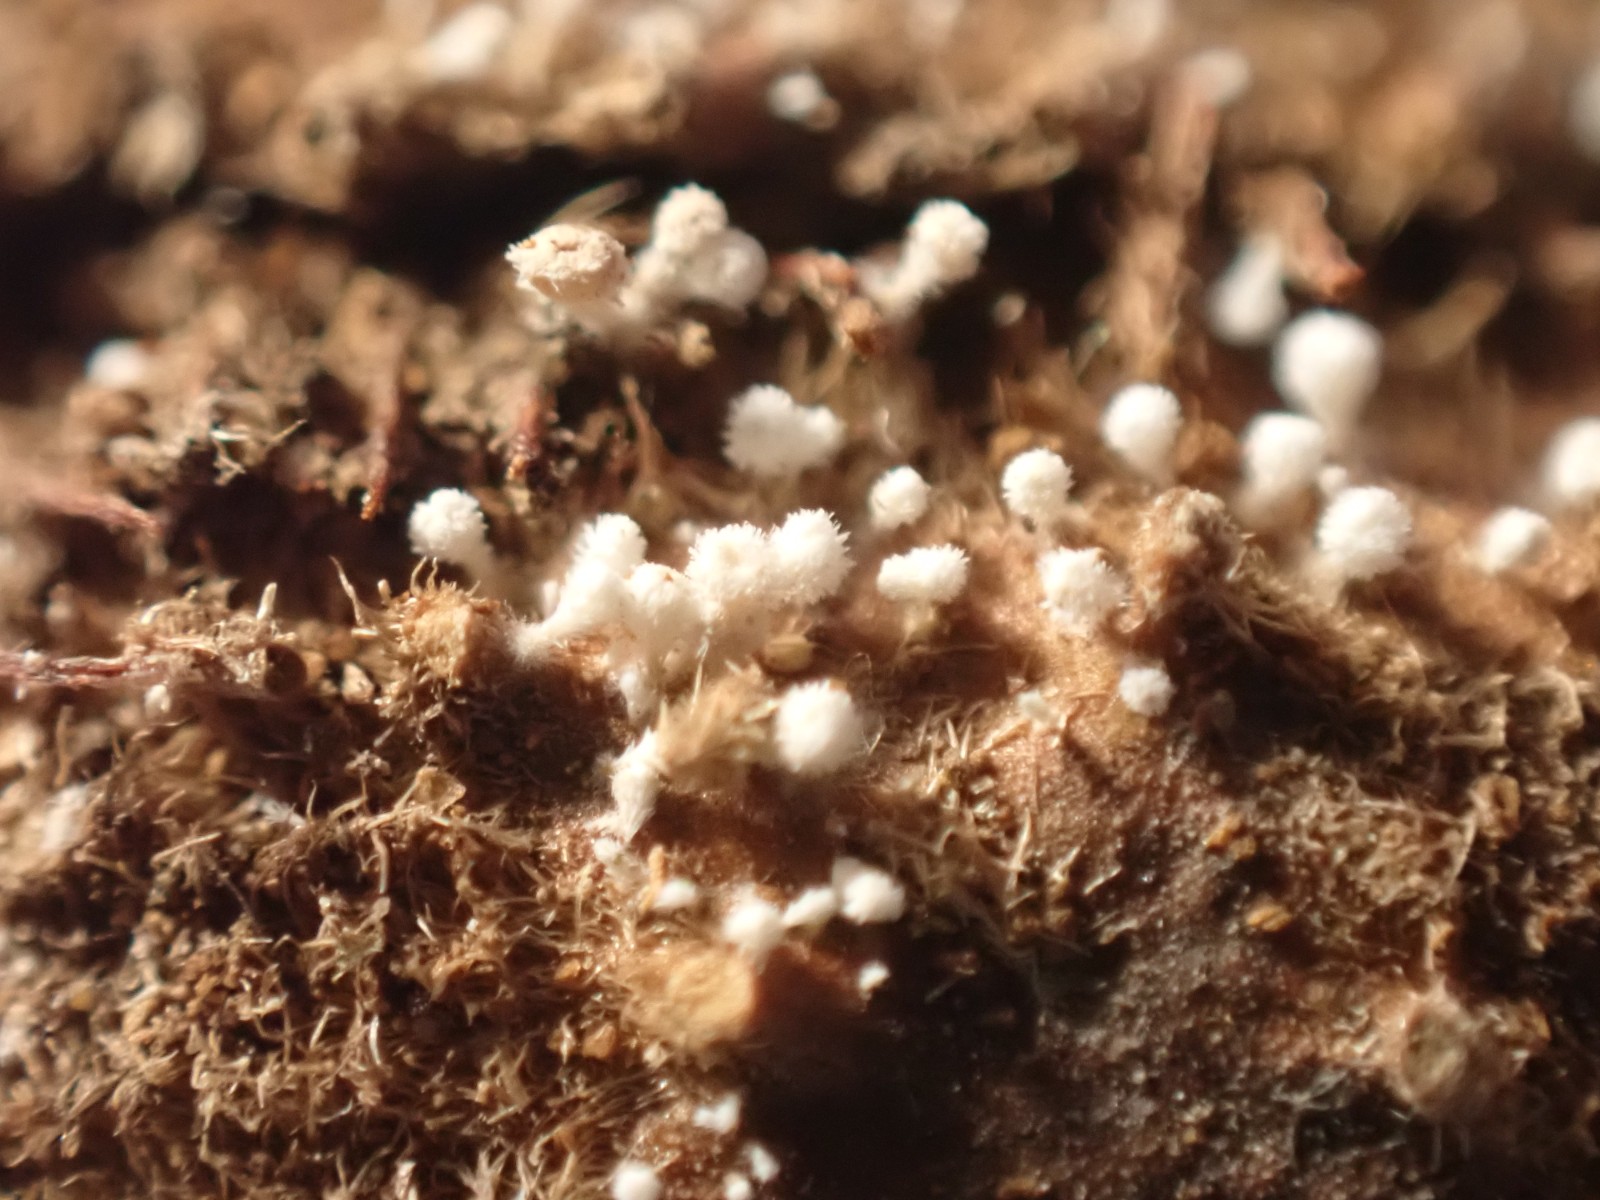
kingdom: Fungi
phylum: Ascomycota
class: Leotiomycetes
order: Helotiales
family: Lachnaceae
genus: Lachnum
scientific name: Lachnum virgineum
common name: jomfru-frynseskive
